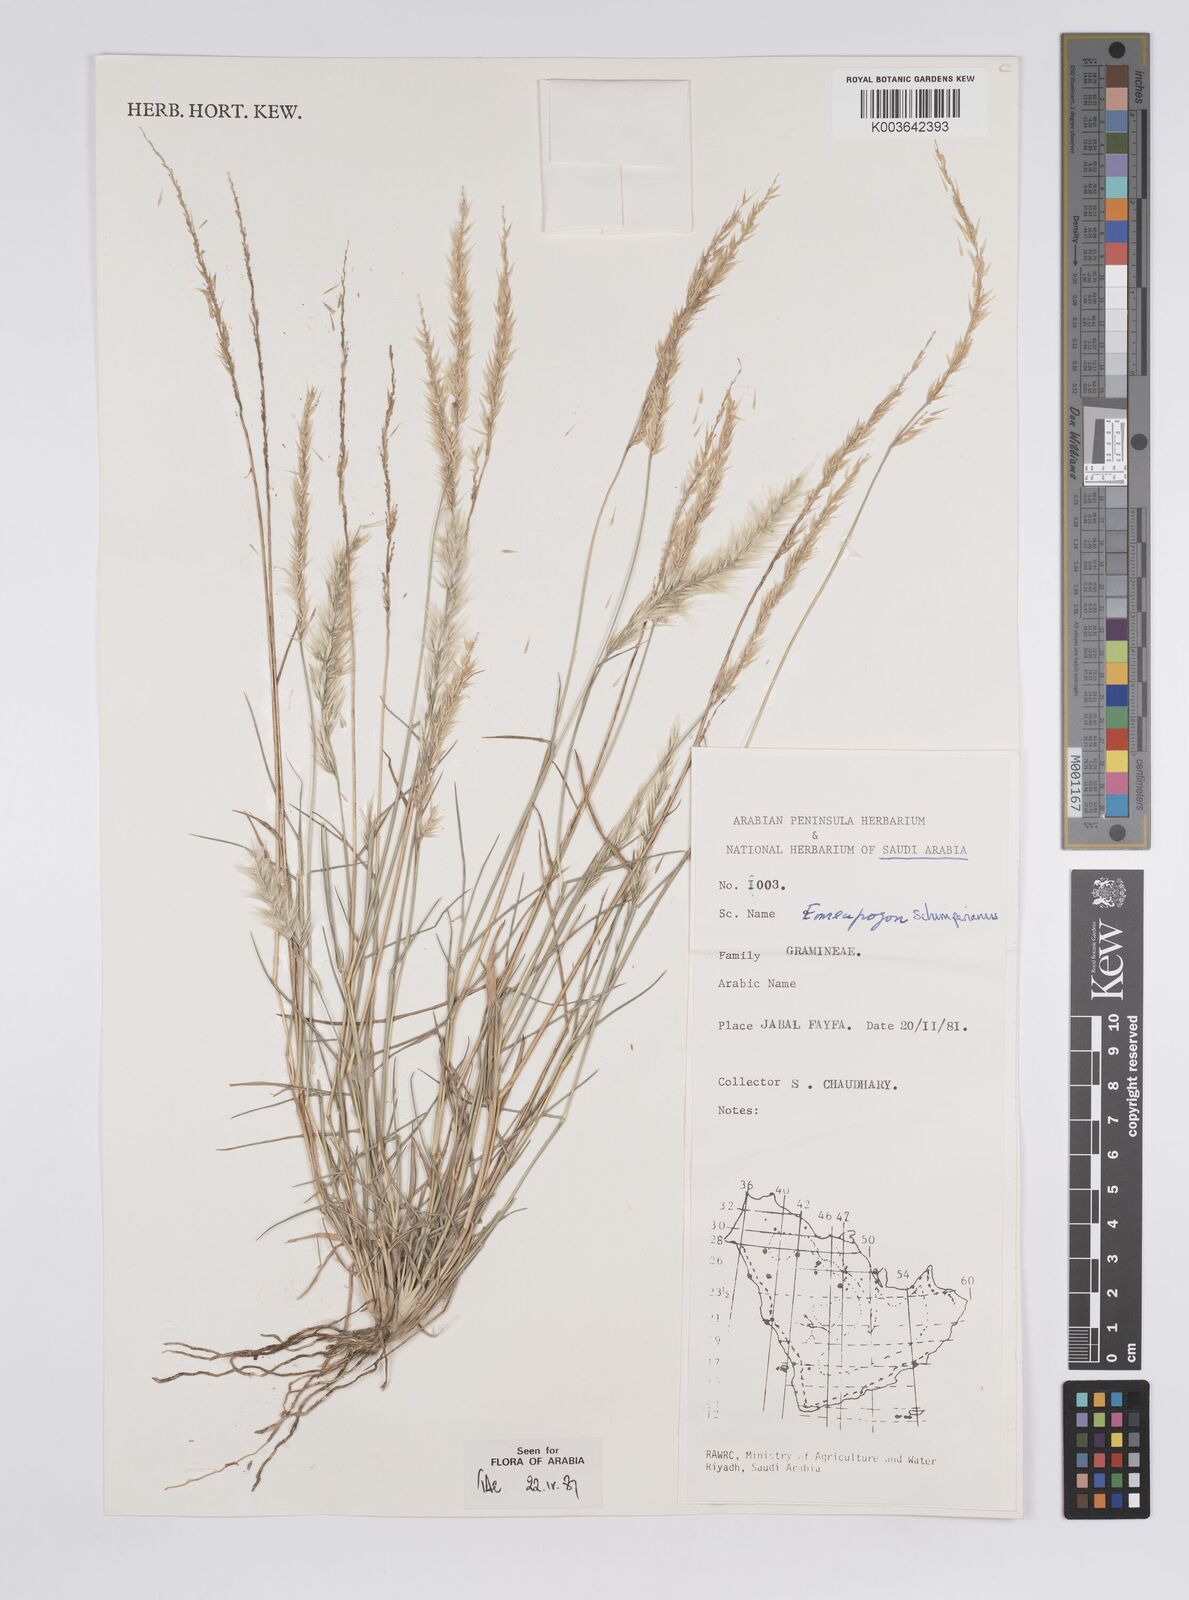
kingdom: Plantae
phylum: Tracheophyta
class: Liliopsida
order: Poales
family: Poaceae
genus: Enneapogon
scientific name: Enneapogon persicus
